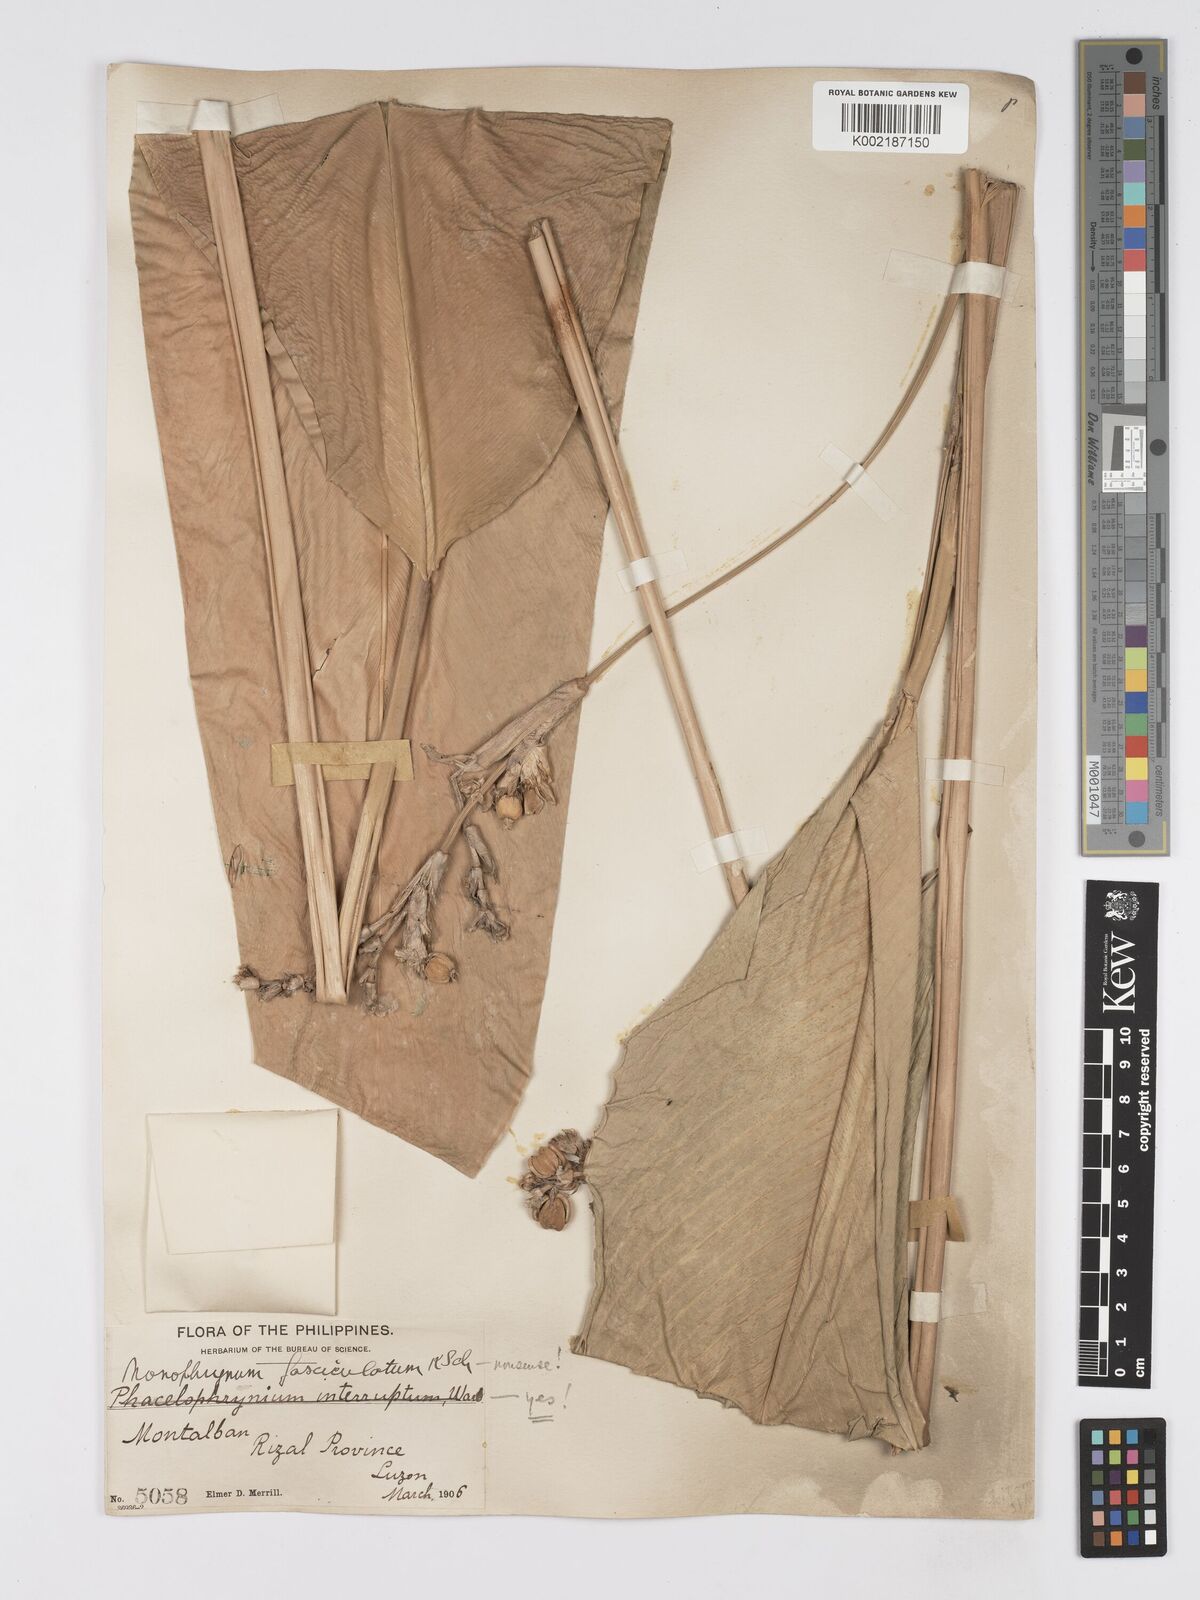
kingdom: Plantae
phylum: Tracheophyta
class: Liliopsida
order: Zingiberales
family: Marantaceae
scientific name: Marantaceae
